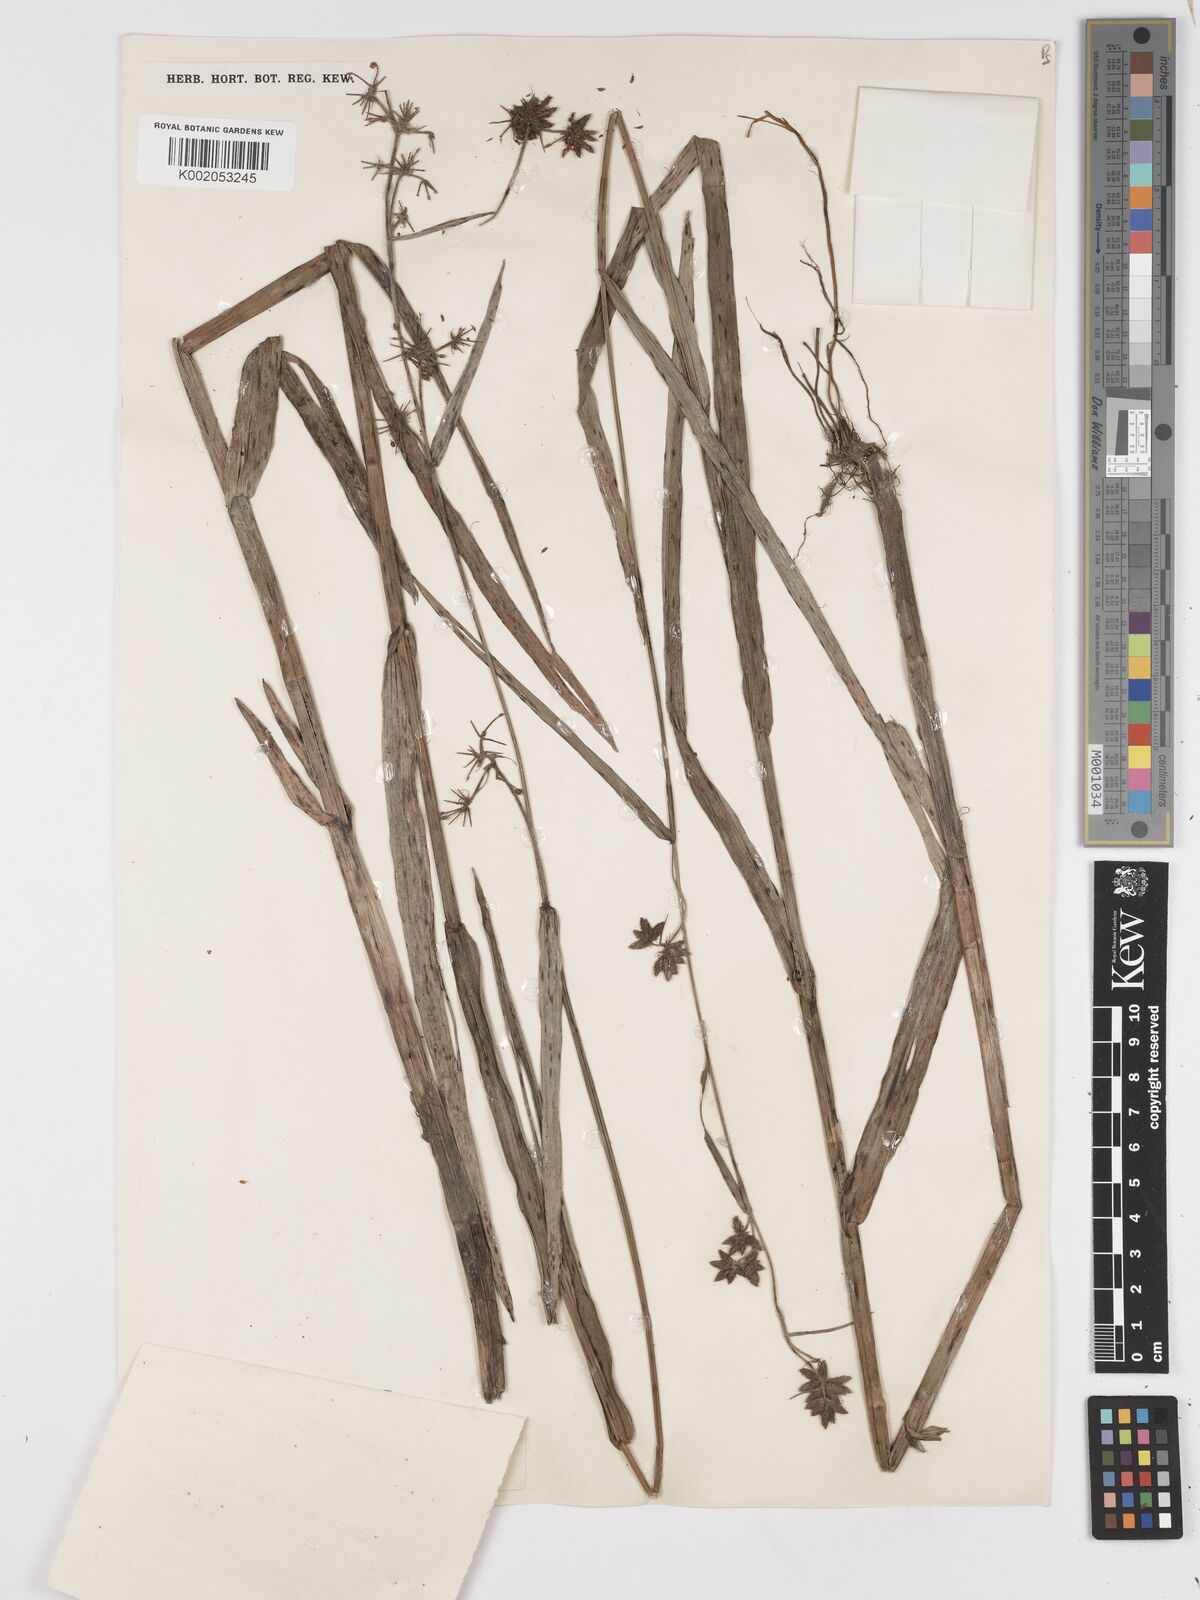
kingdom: Plantae
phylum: Tracheophyta
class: Liliopsida
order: Poales
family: Cyperaceae
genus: Fuirena
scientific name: Fuirena umbellata
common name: Yefen
